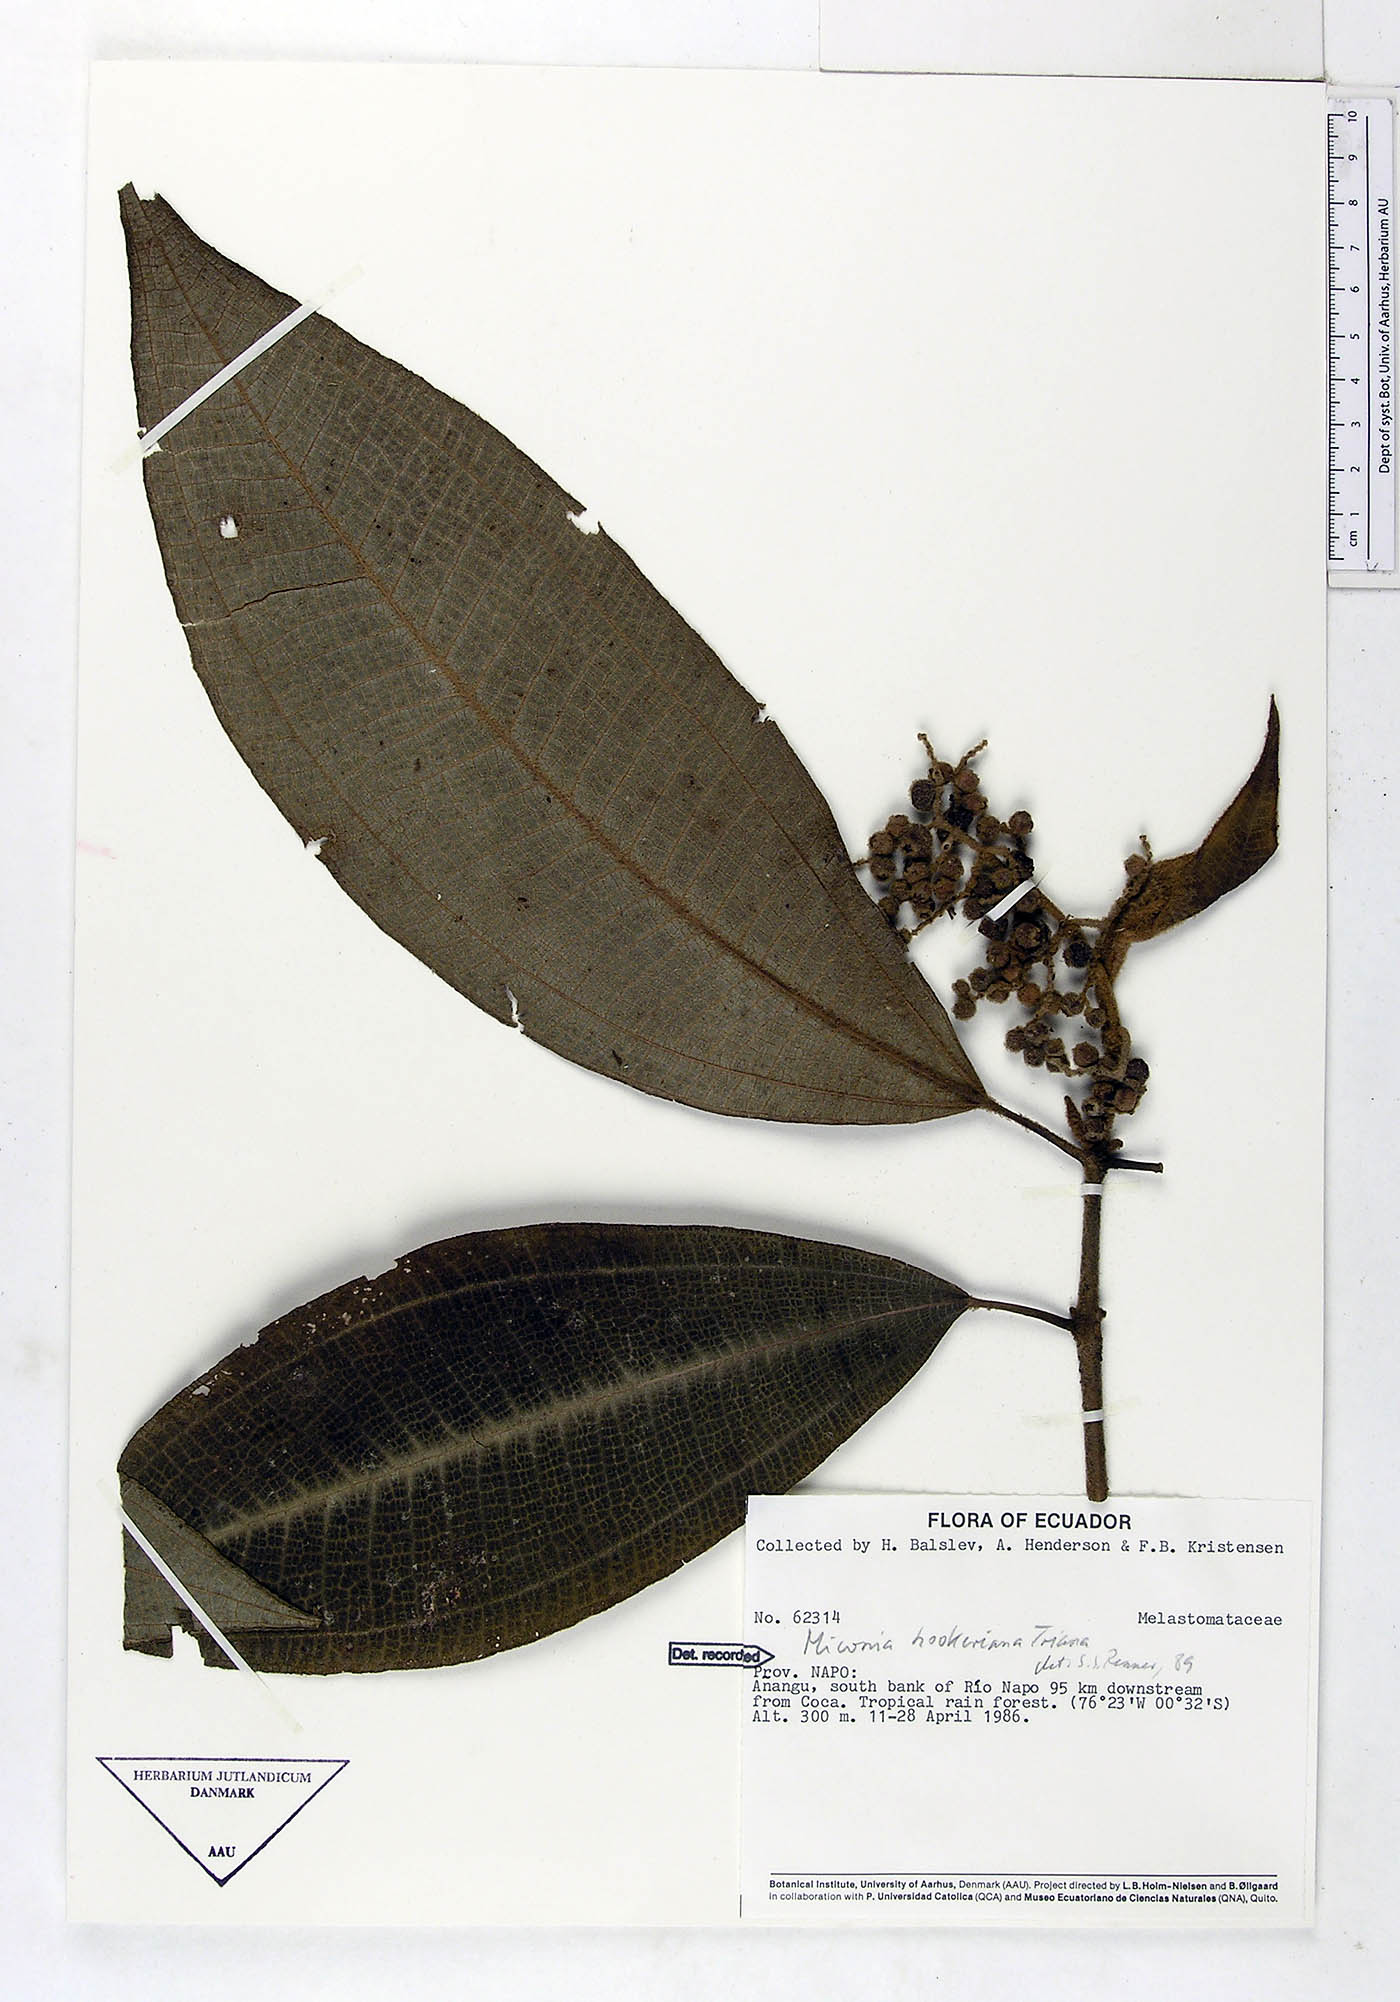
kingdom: Plantae
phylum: Tracheophyta
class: Magnoliopsida
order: Myrtales
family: Melastomataceae
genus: Miconia
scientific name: Miconia hookeriana
